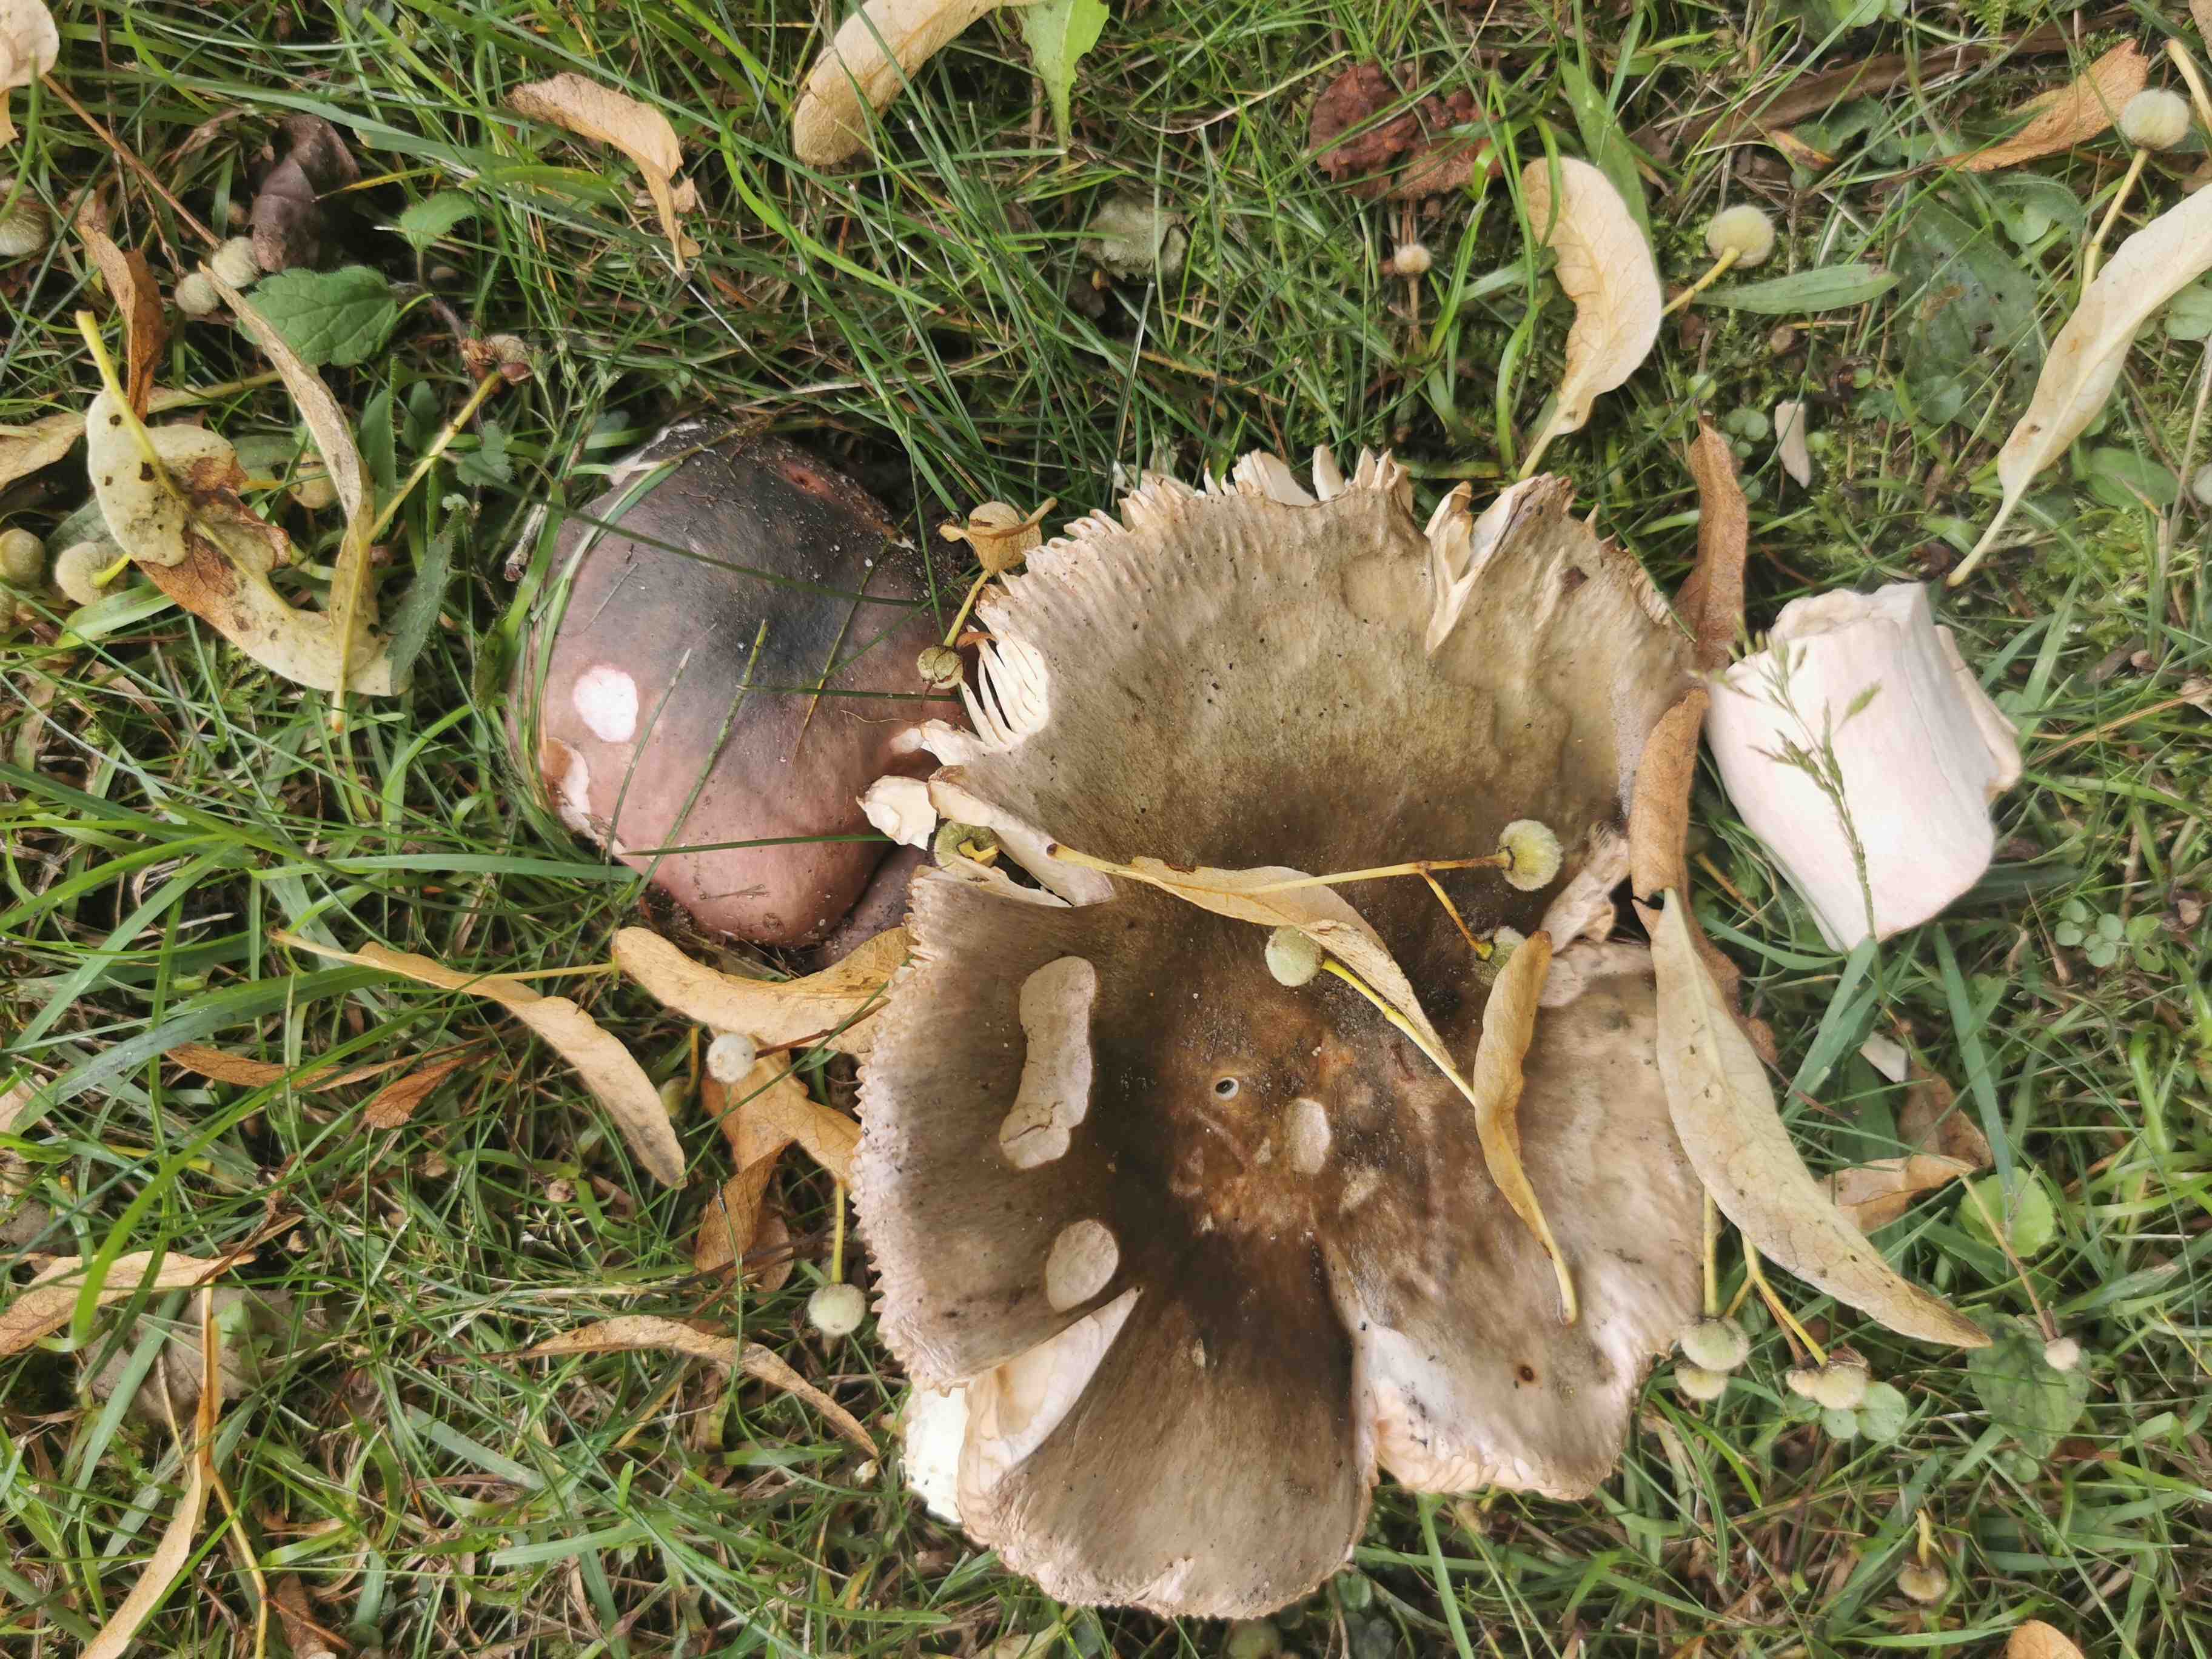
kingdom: Fungi
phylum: Basidiomycota
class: Agaricomycetes
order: Russulales
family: Russulaceae
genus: Russula
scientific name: Russula cyanoxantha
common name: broget skørhat
